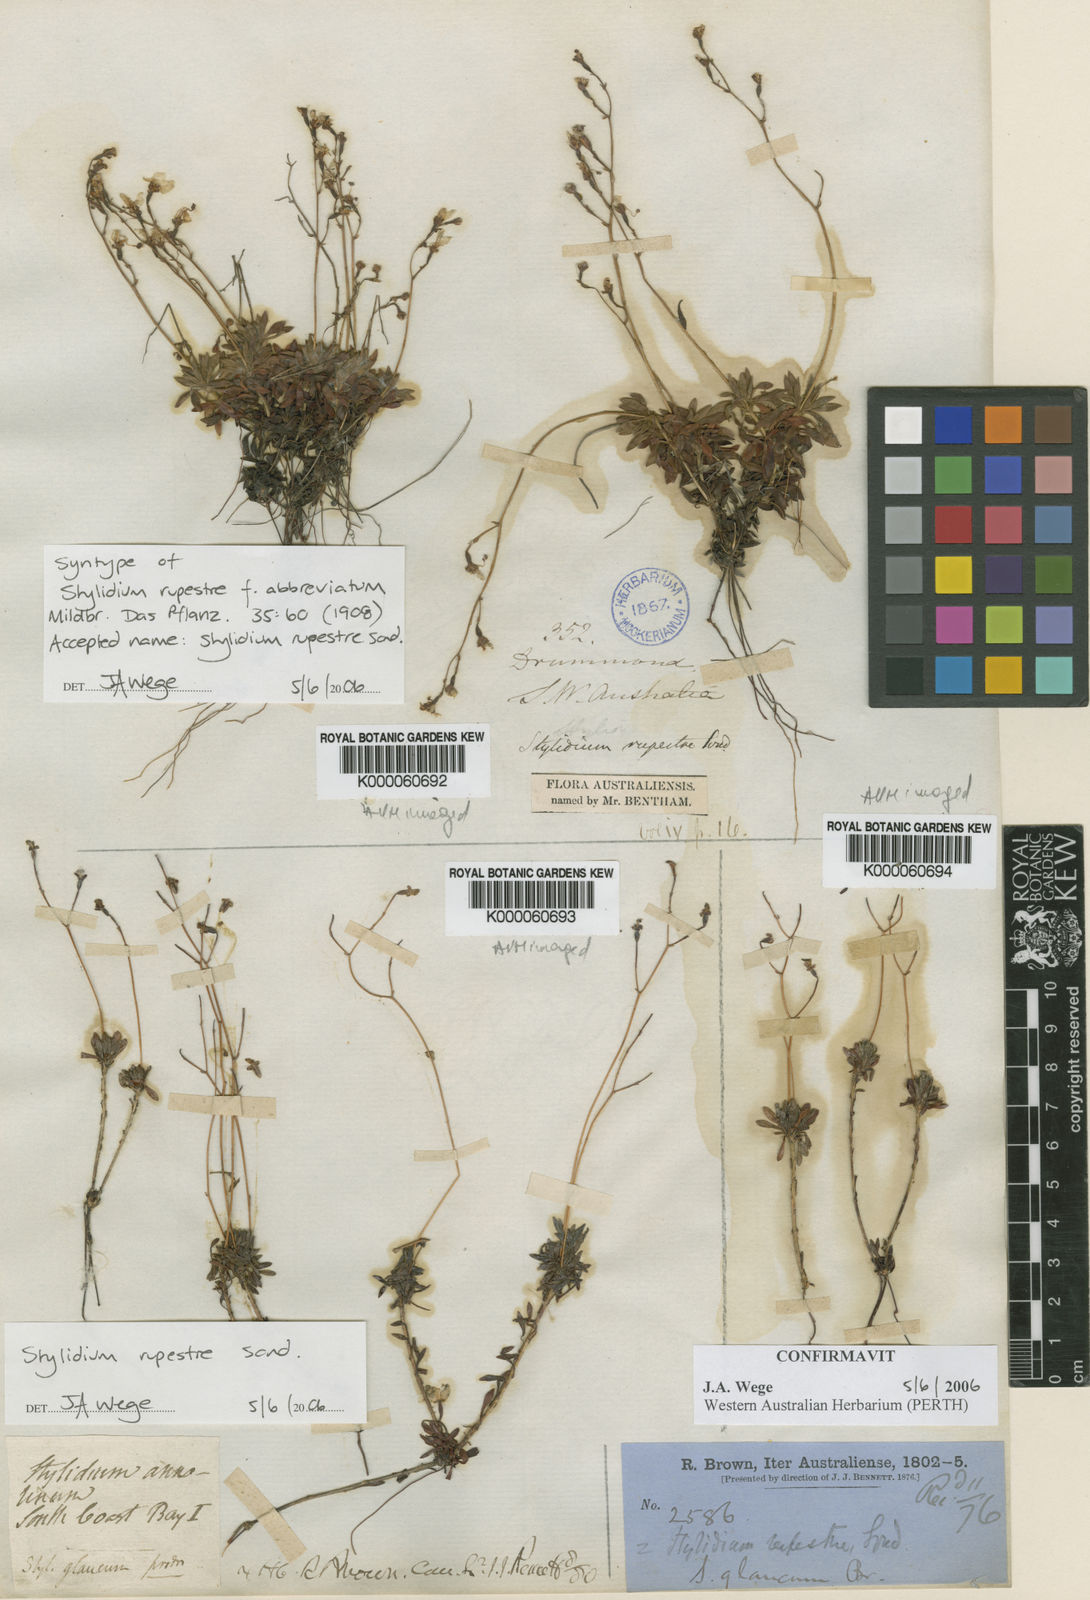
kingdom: Plantae
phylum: Tracheophyta
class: Magnoliopsida
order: Asterales
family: Stylidiaceae
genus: Stylidium
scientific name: Stylidium rupestre
